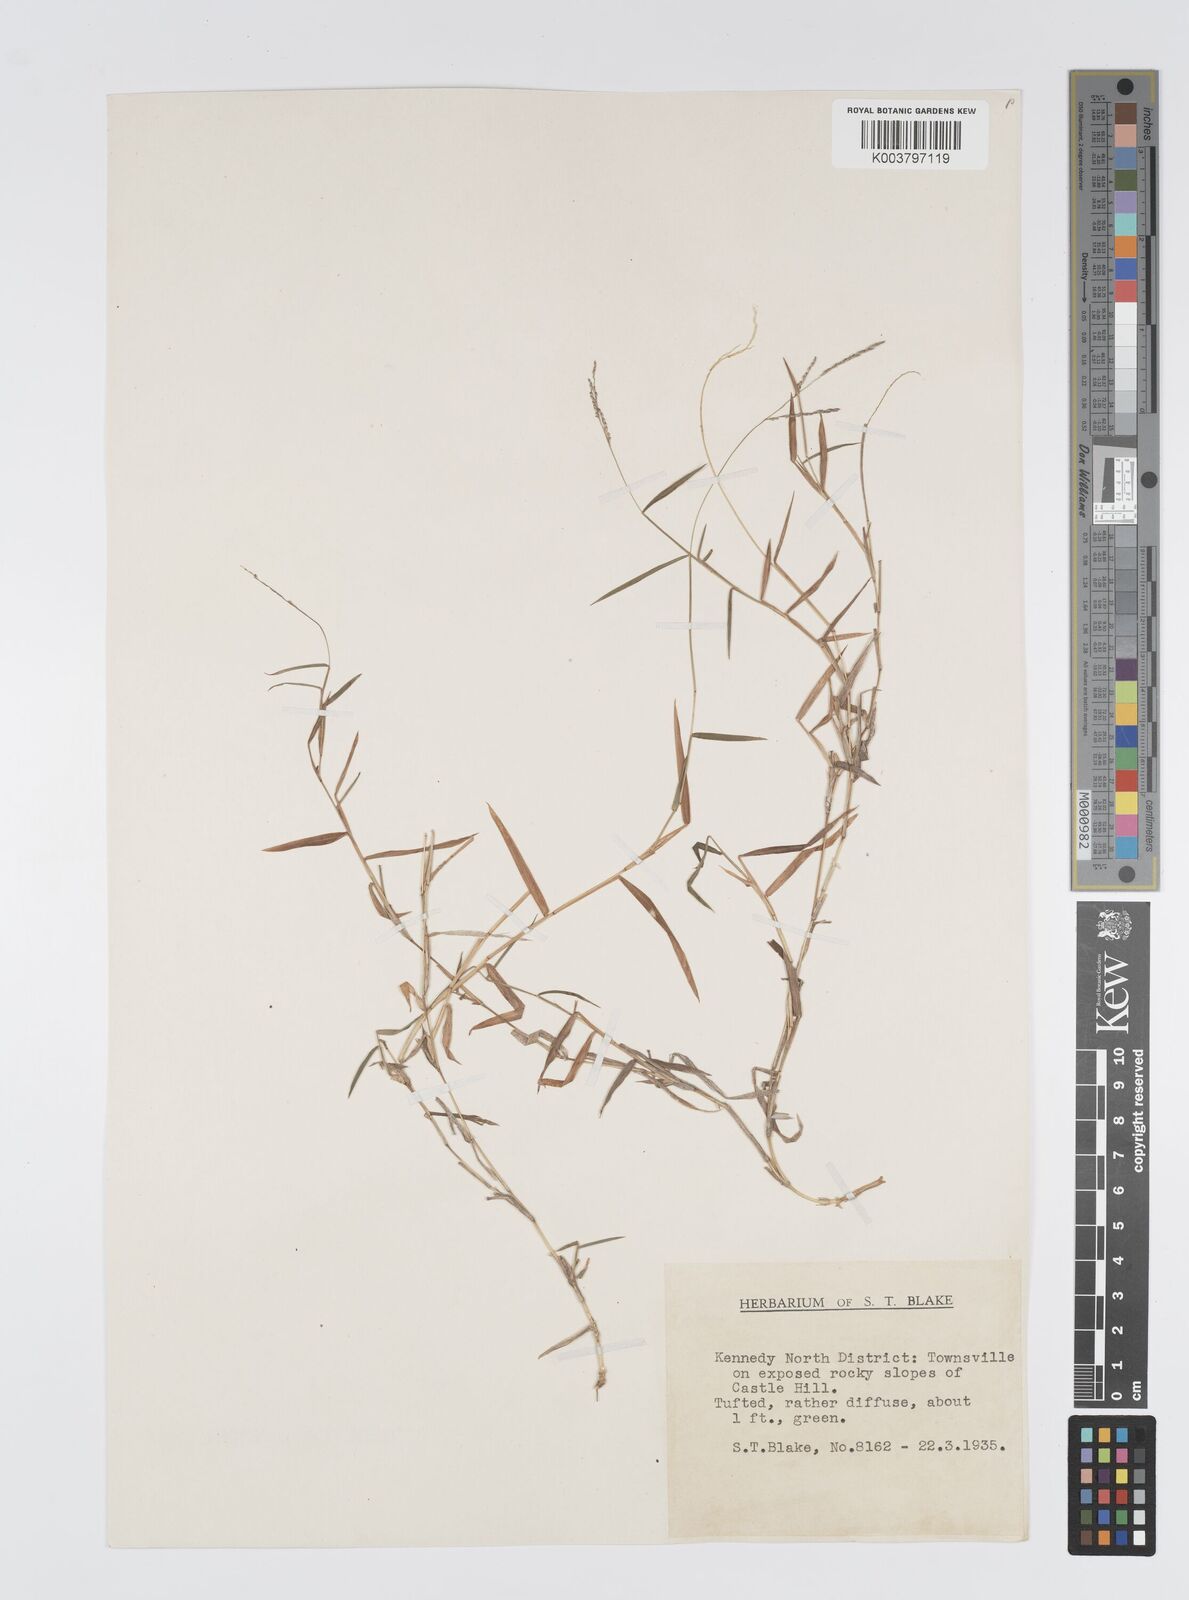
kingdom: Plantae
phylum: Tracheophyta
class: Liliopsida
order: Poales
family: Poaceae
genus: Digitaria
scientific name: Digitaria diffusa
